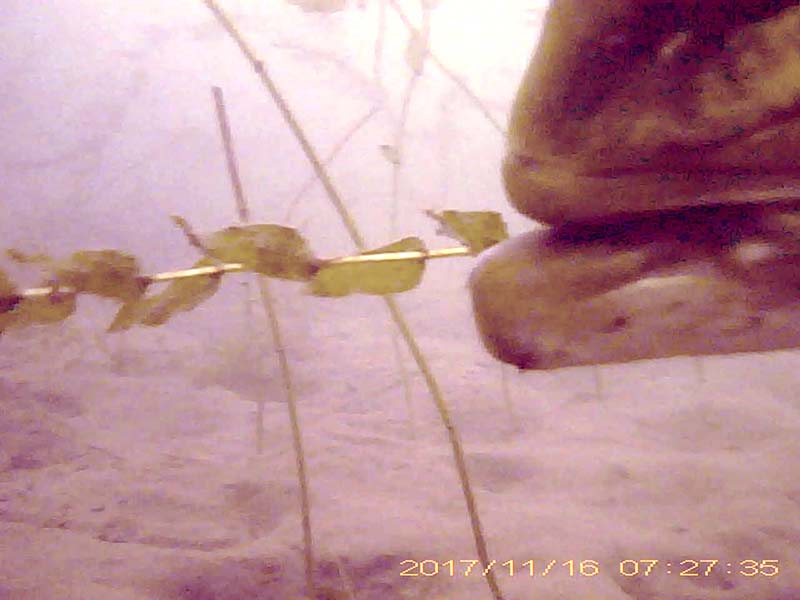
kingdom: Animalia
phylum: Chordata
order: Perciformes
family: Centrarchidae
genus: Micropterus
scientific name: Micropterus salmoides
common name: オオクチバス
